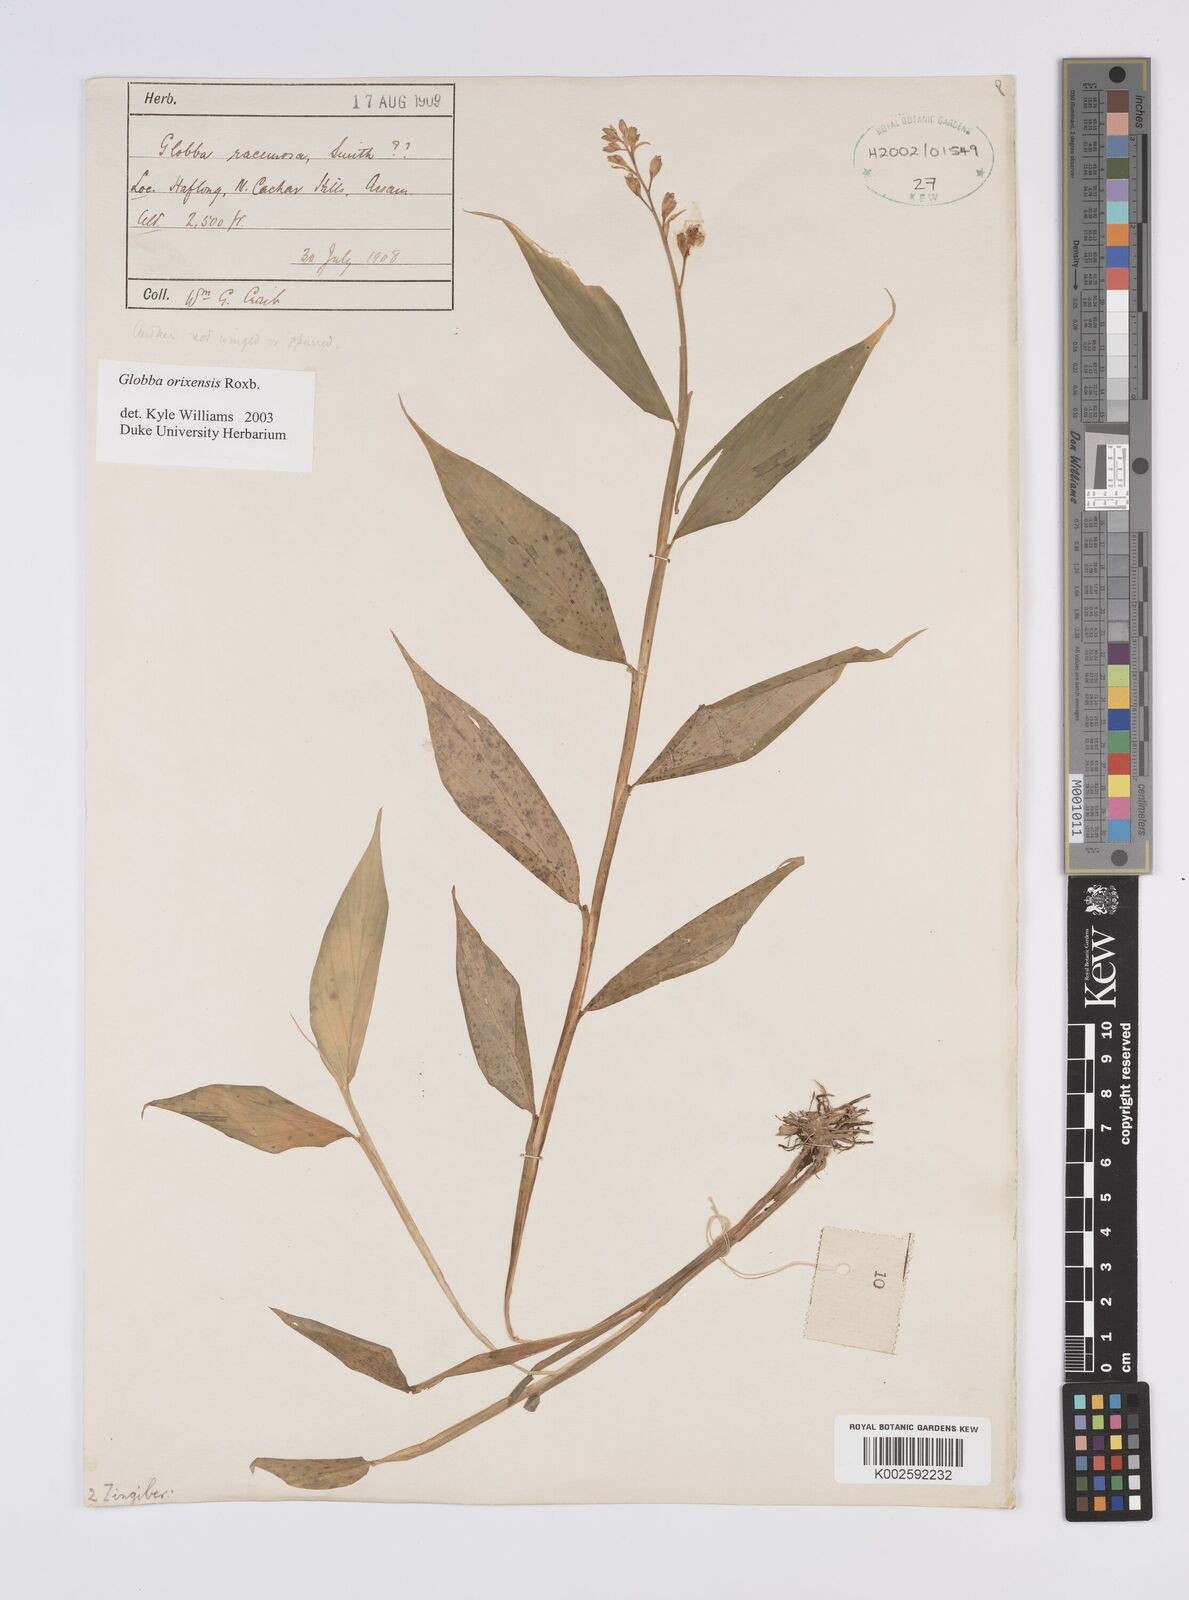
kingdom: Plantae
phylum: Tracheophyta
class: Liliopsida
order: Zingiberales
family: Zingiberaceae
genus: Globba
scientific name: Globba orixensis
